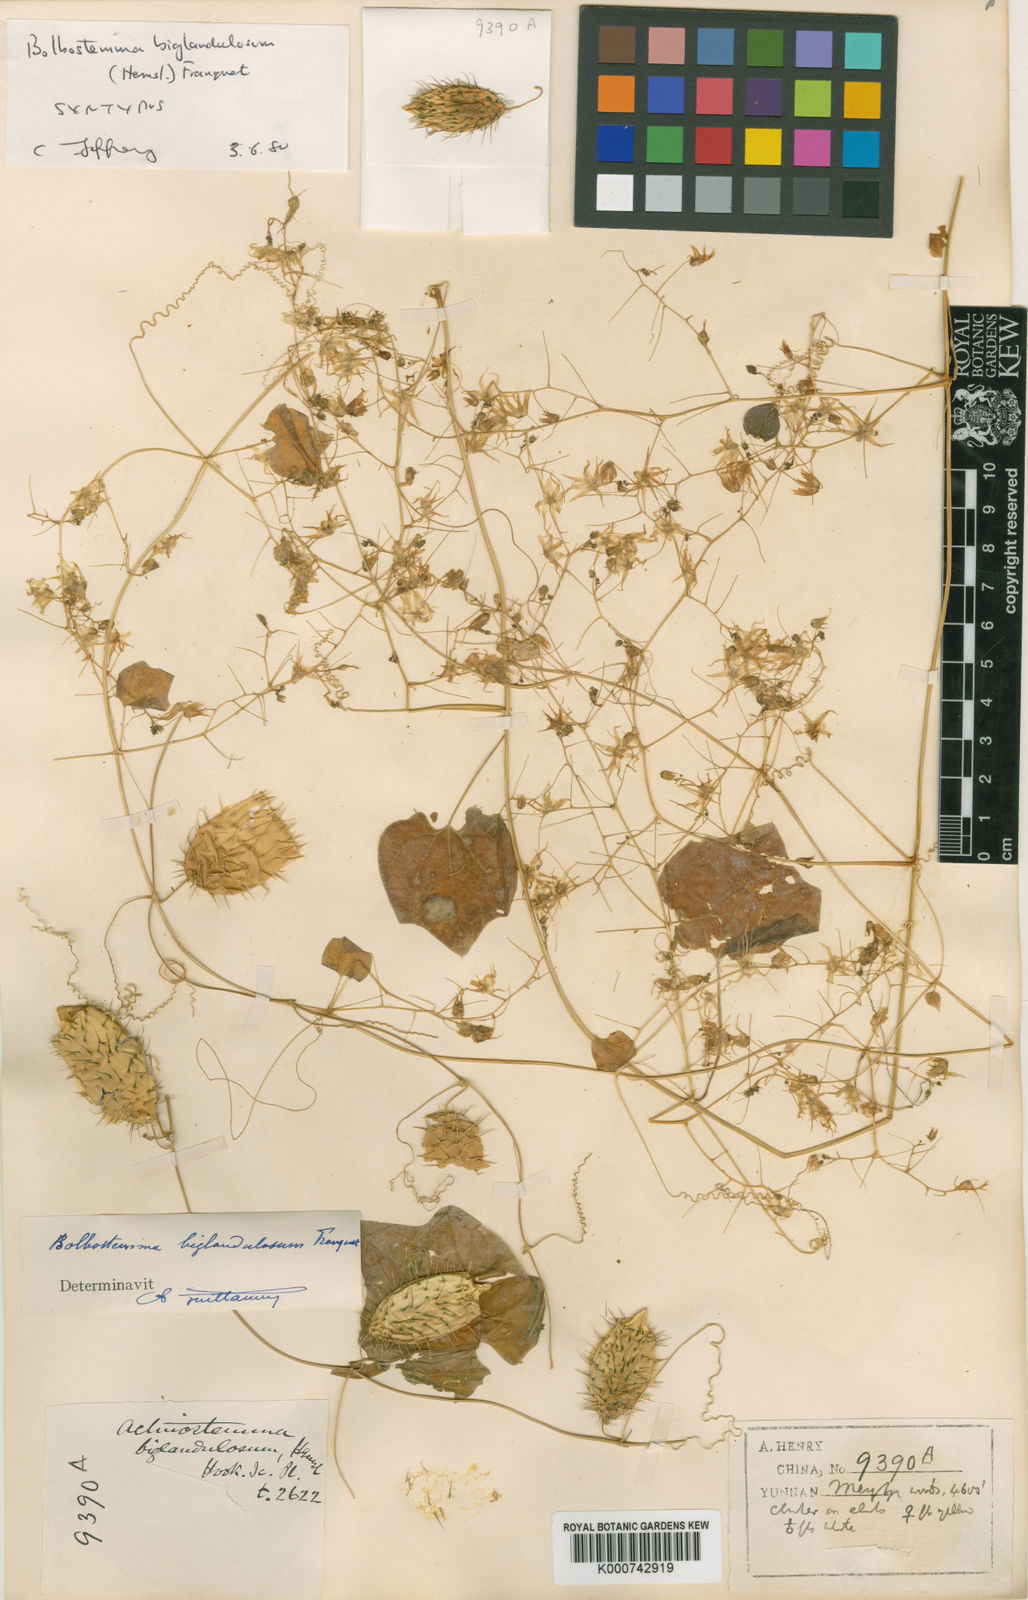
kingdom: Plantae
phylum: Tracheophyta
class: Magnoliopsida
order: Cucurbitales
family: Cucurbitaceae
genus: Actinostemma
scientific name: Actinostemma biglandulosum
